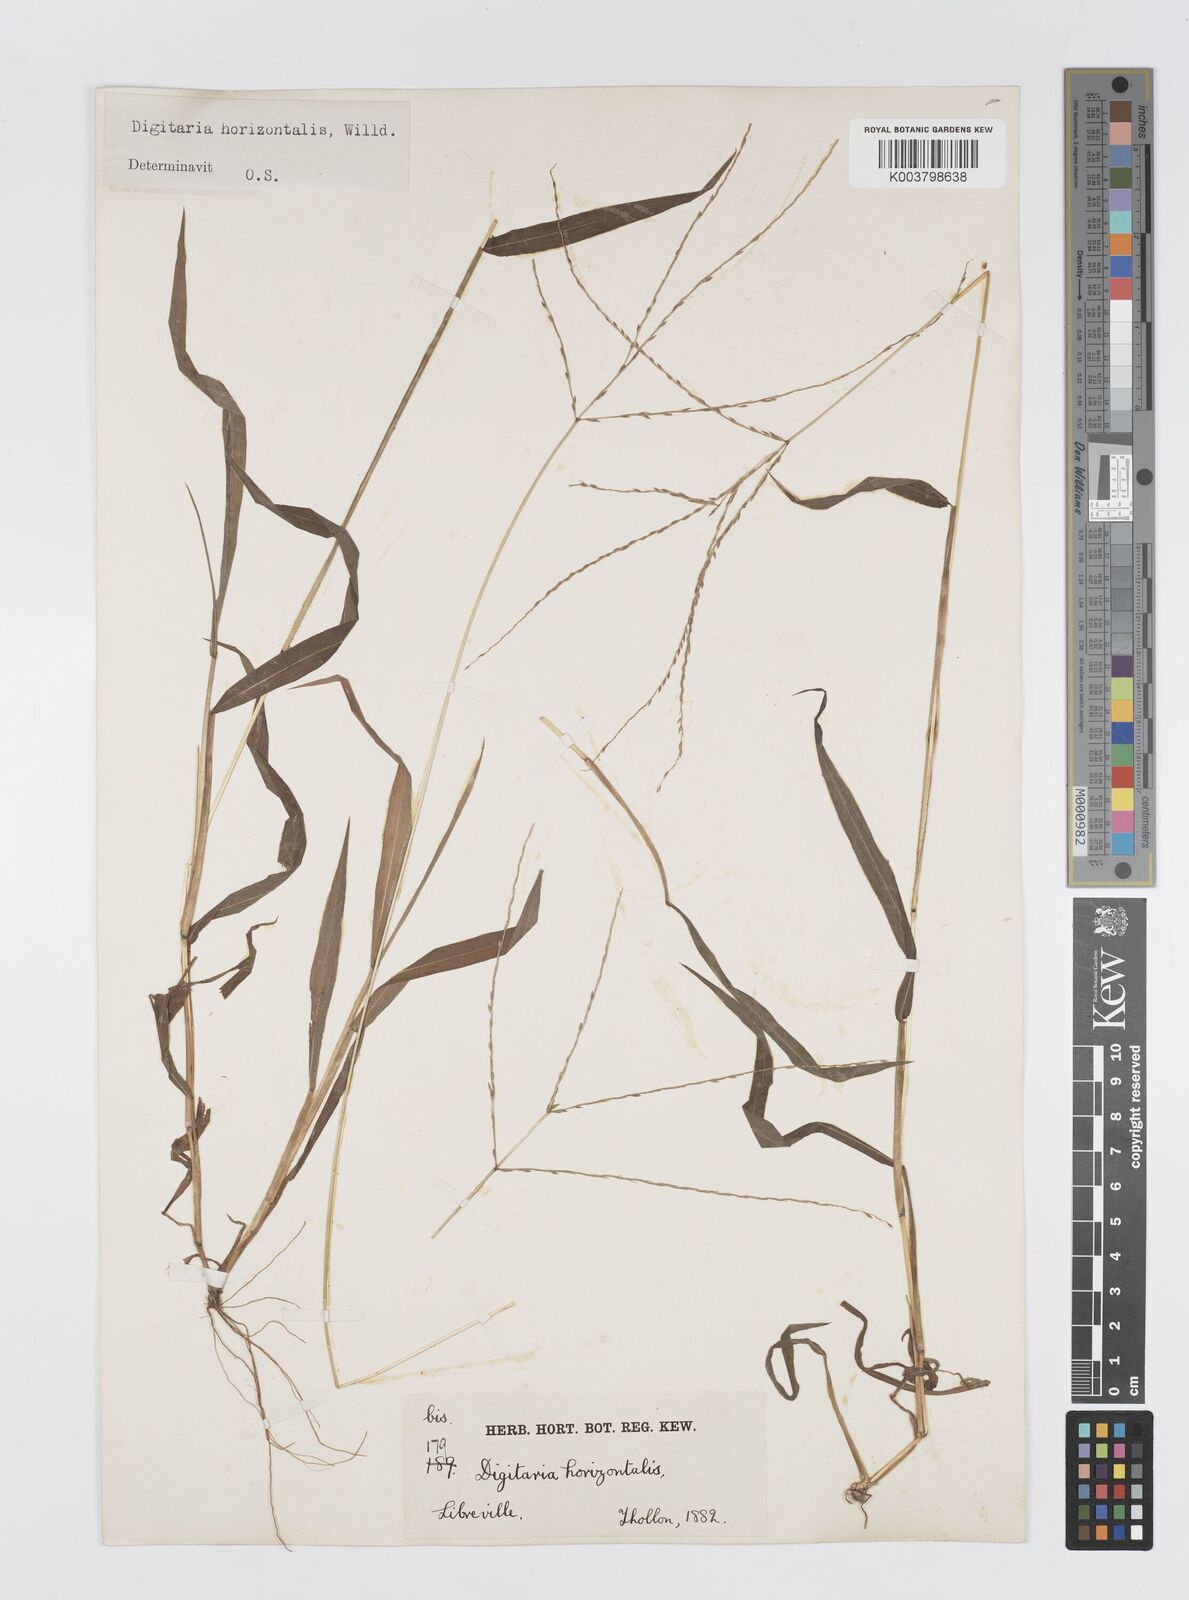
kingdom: Plantae
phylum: Tracheophyta
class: Liliopsida
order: Poales
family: Poaceae
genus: Digitaria
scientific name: Digitaria horizontalis
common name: Jamaican crabgrass
